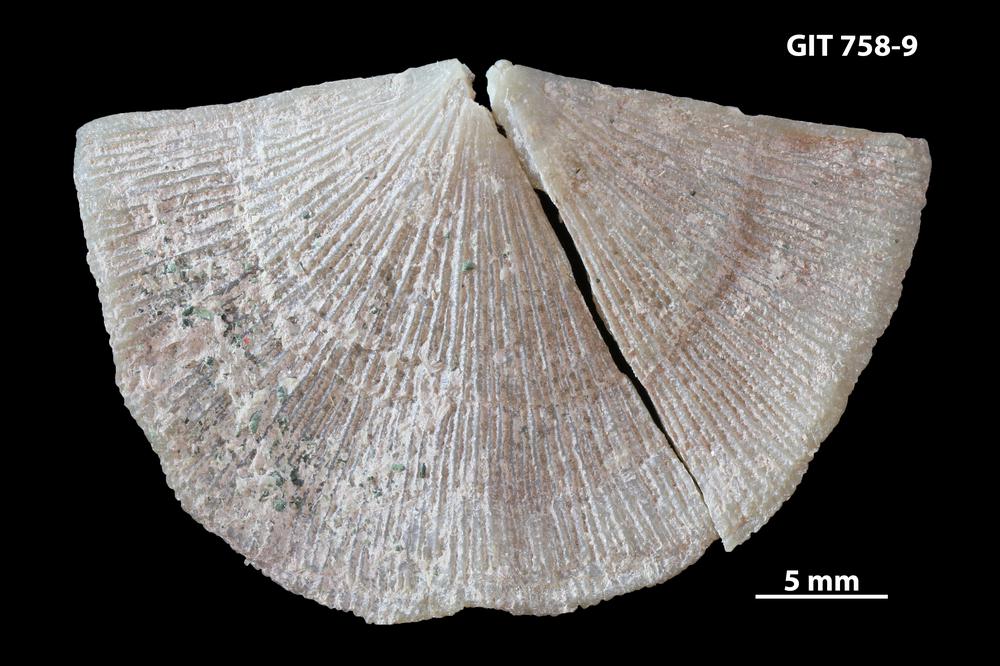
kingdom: Animalia
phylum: Brachiopoda
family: Gonambonitidae
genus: Gonambonites
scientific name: Gonambonites plana
